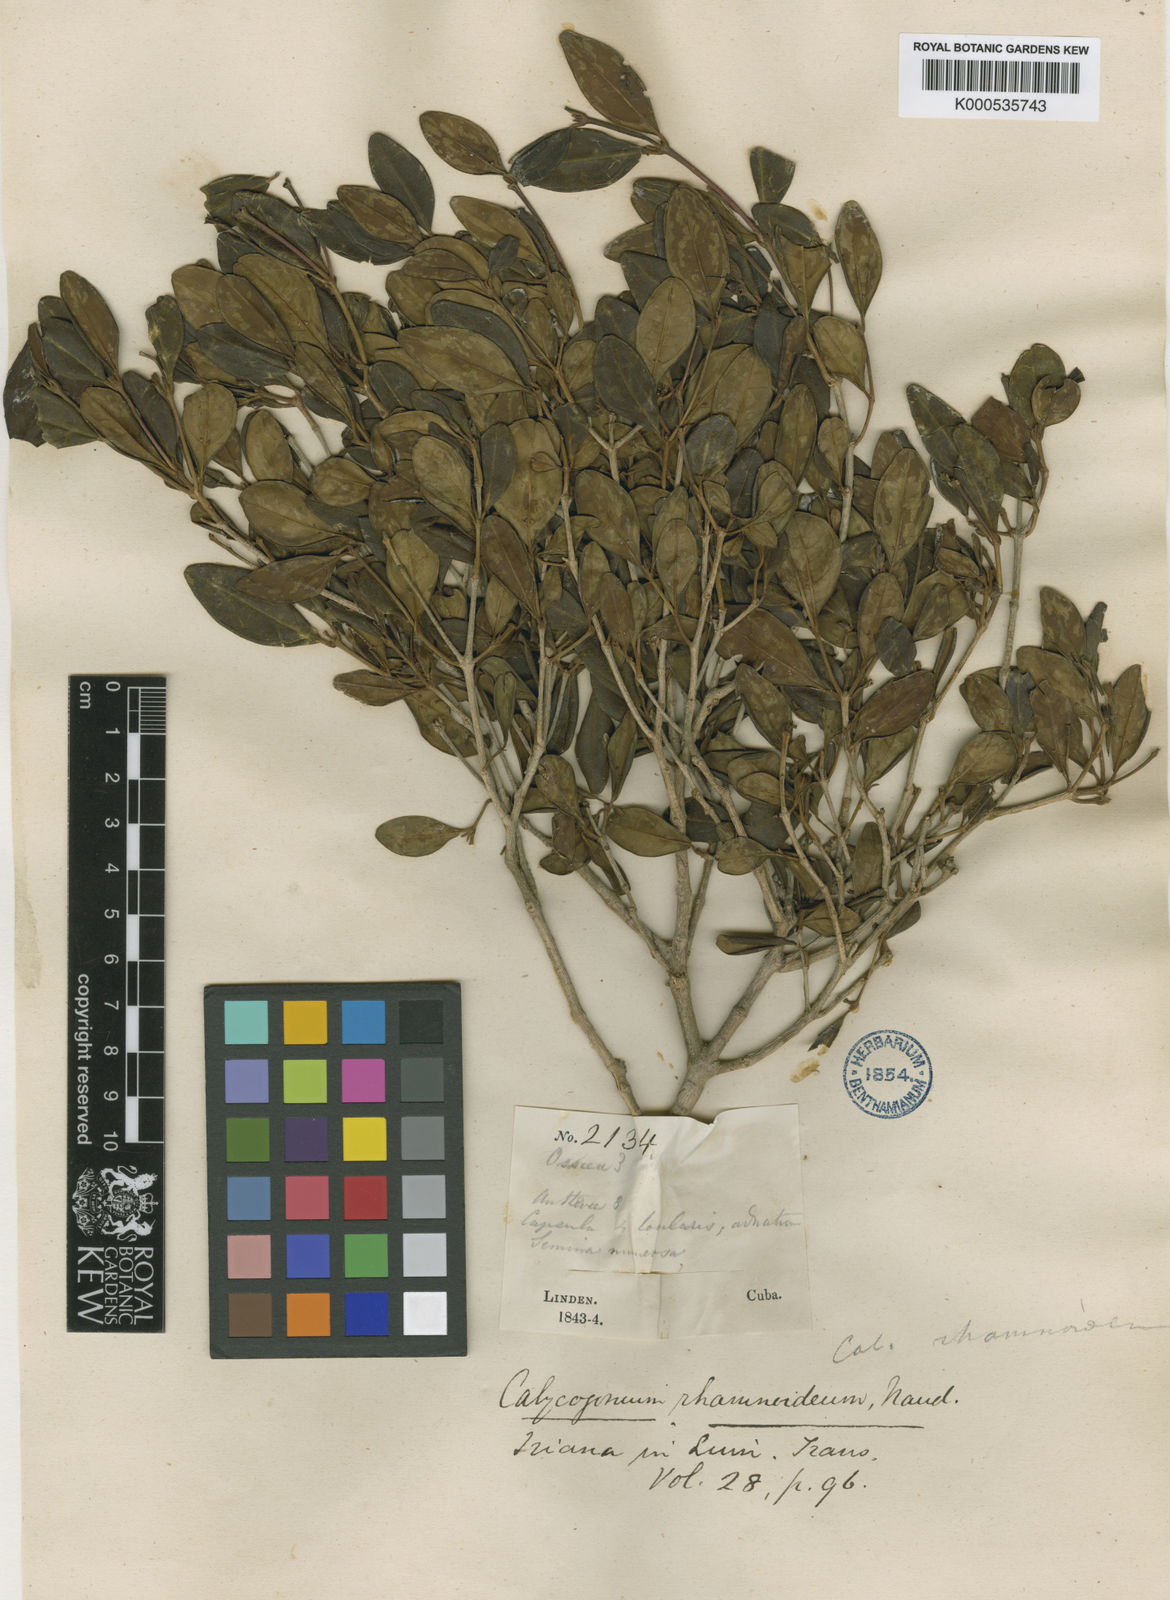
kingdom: Plantae
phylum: Tracheophyta
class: Magnoliopsida
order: Myrtales
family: Melastomataceae
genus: Miconia
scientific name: Miconia vulcanidomatia
